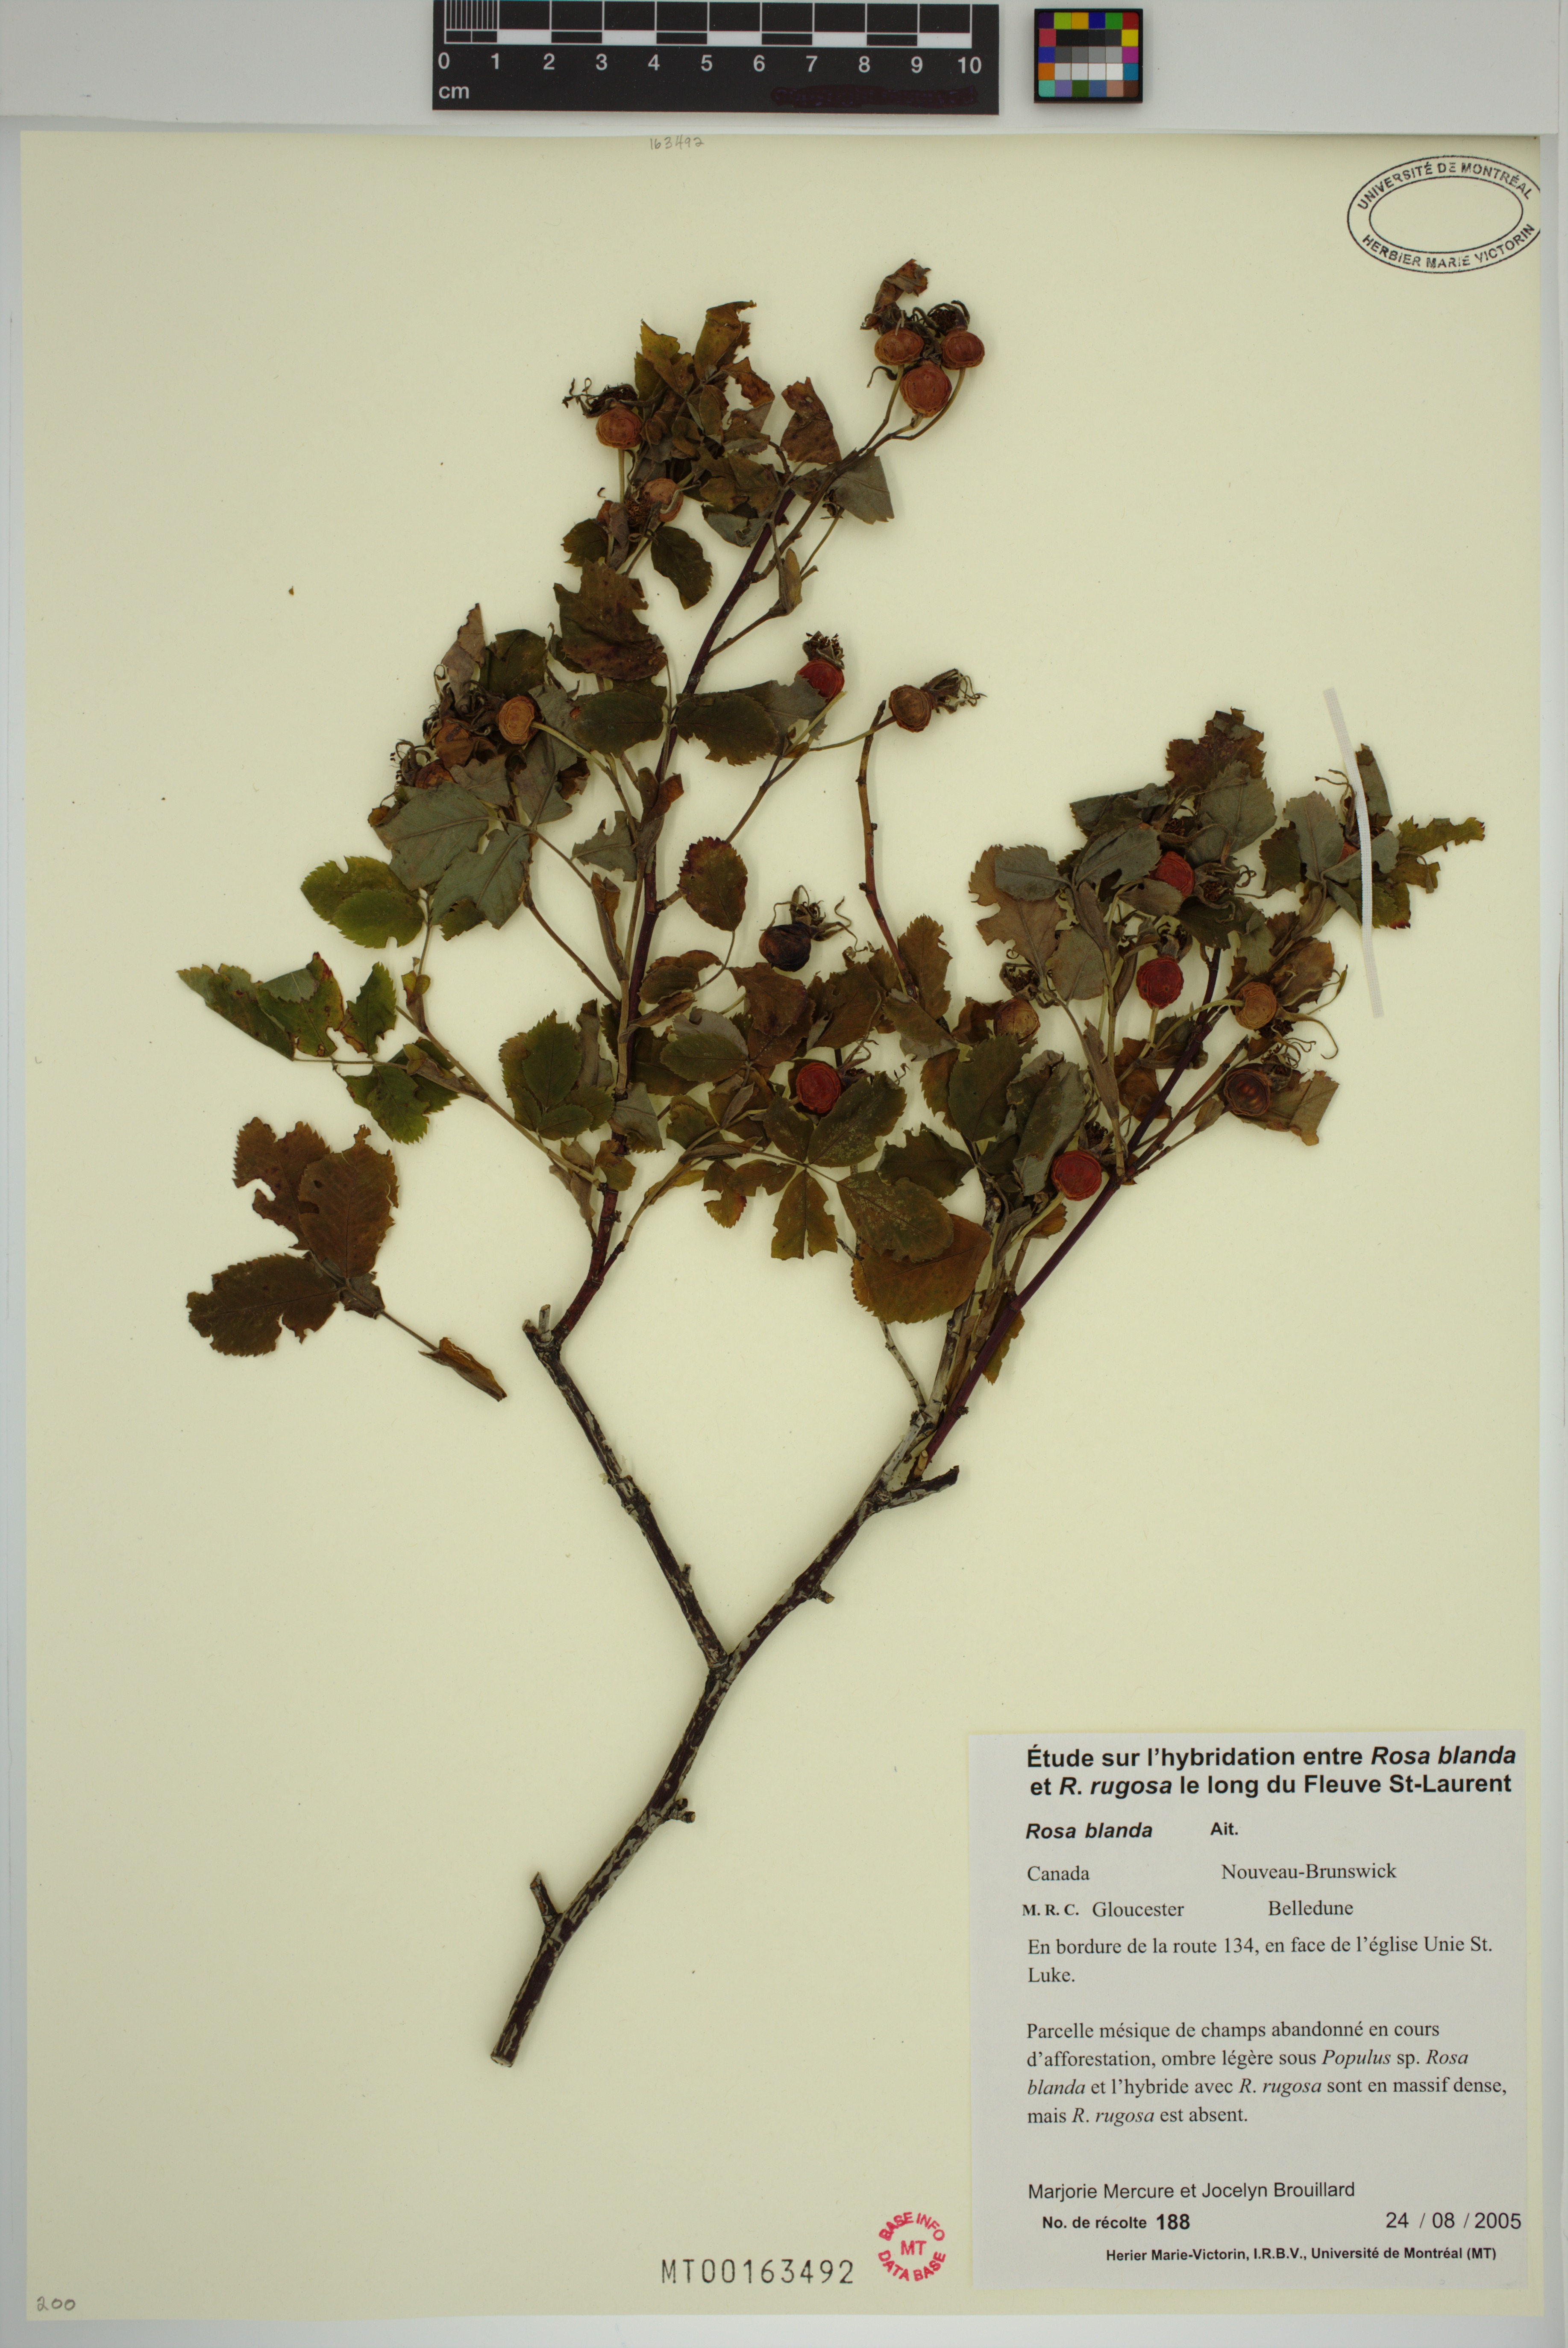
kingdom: Plantae
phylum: Tracheophyta
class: Magnoliopsida
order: Rosales
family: Rosaceae
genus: Rosa
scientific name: Rosa blanda
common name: Smooth rose
